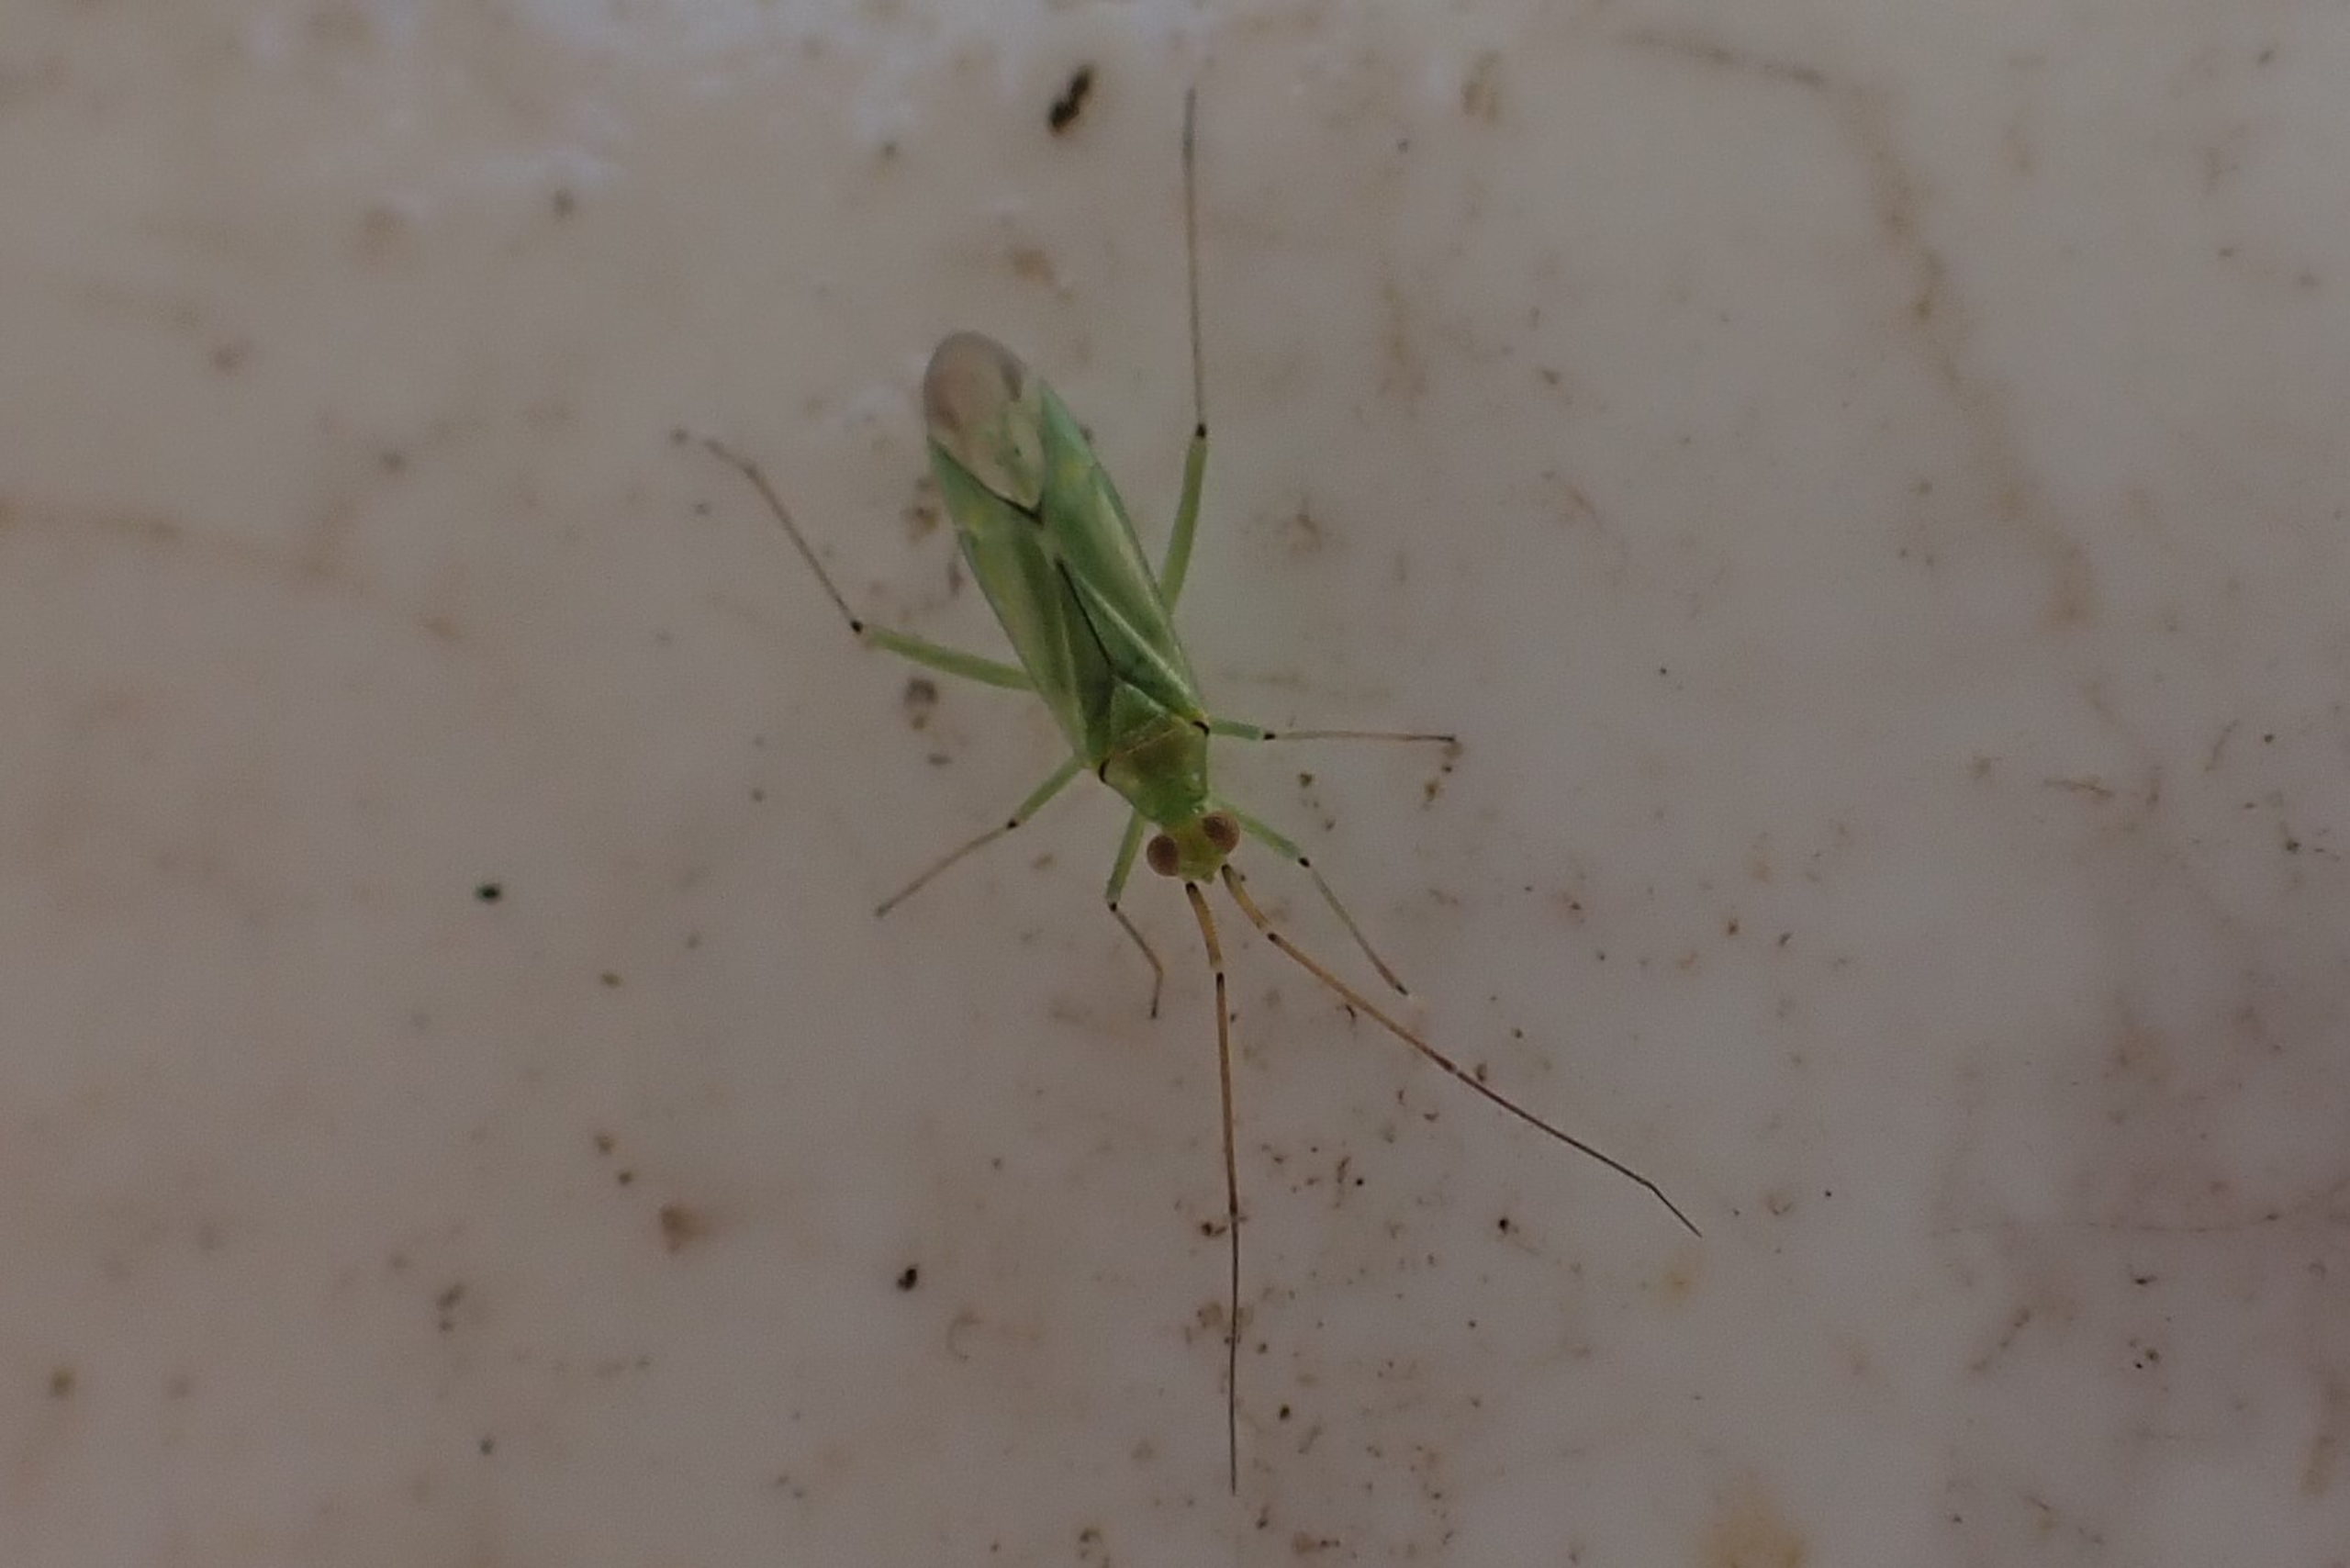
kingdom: Animalia
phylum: Arthropoda
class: Insecta
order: Hemiptera
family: Miridae
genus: Blepharidopterus
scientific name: Blepharidopterus angulatus
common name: Sortknæet blomstertæge
